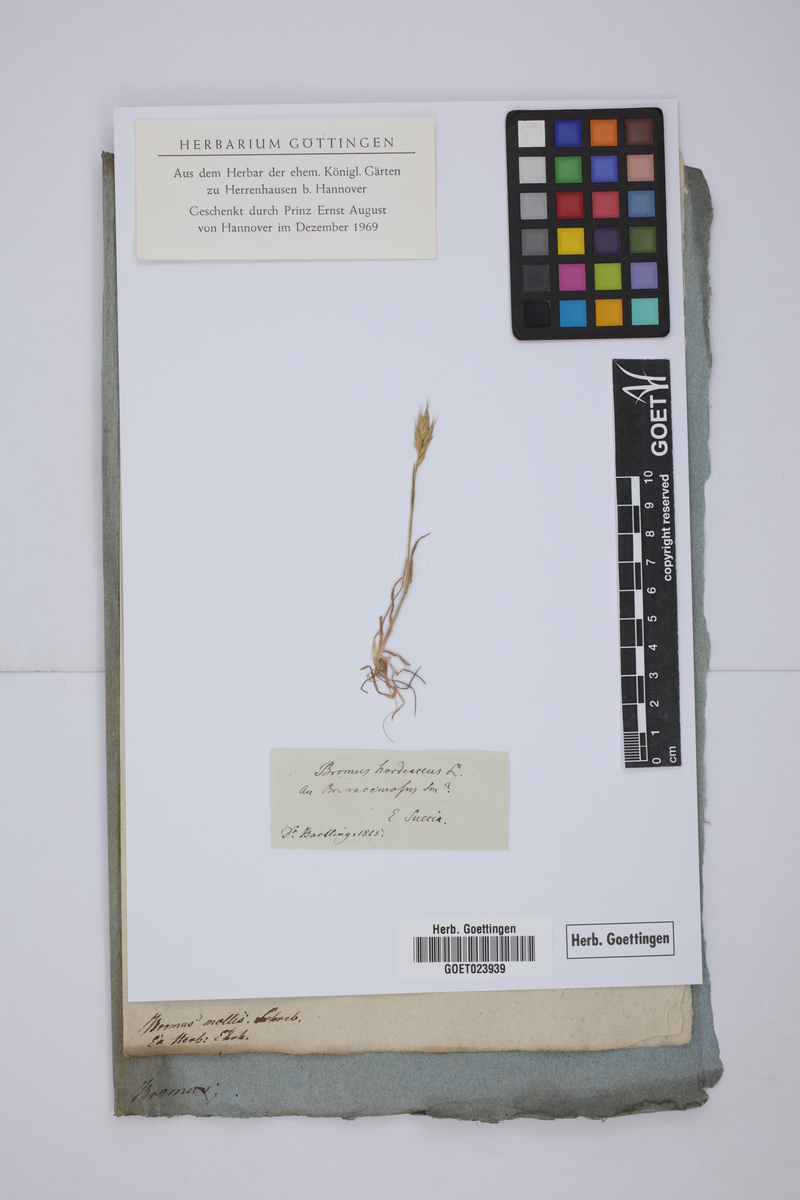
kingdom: Plantae
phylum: Tracheophyta
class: Liliopsida
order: Poales
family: Poaceae
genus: Bromus
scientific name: Bromus hordeaceus
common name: Soft brome
